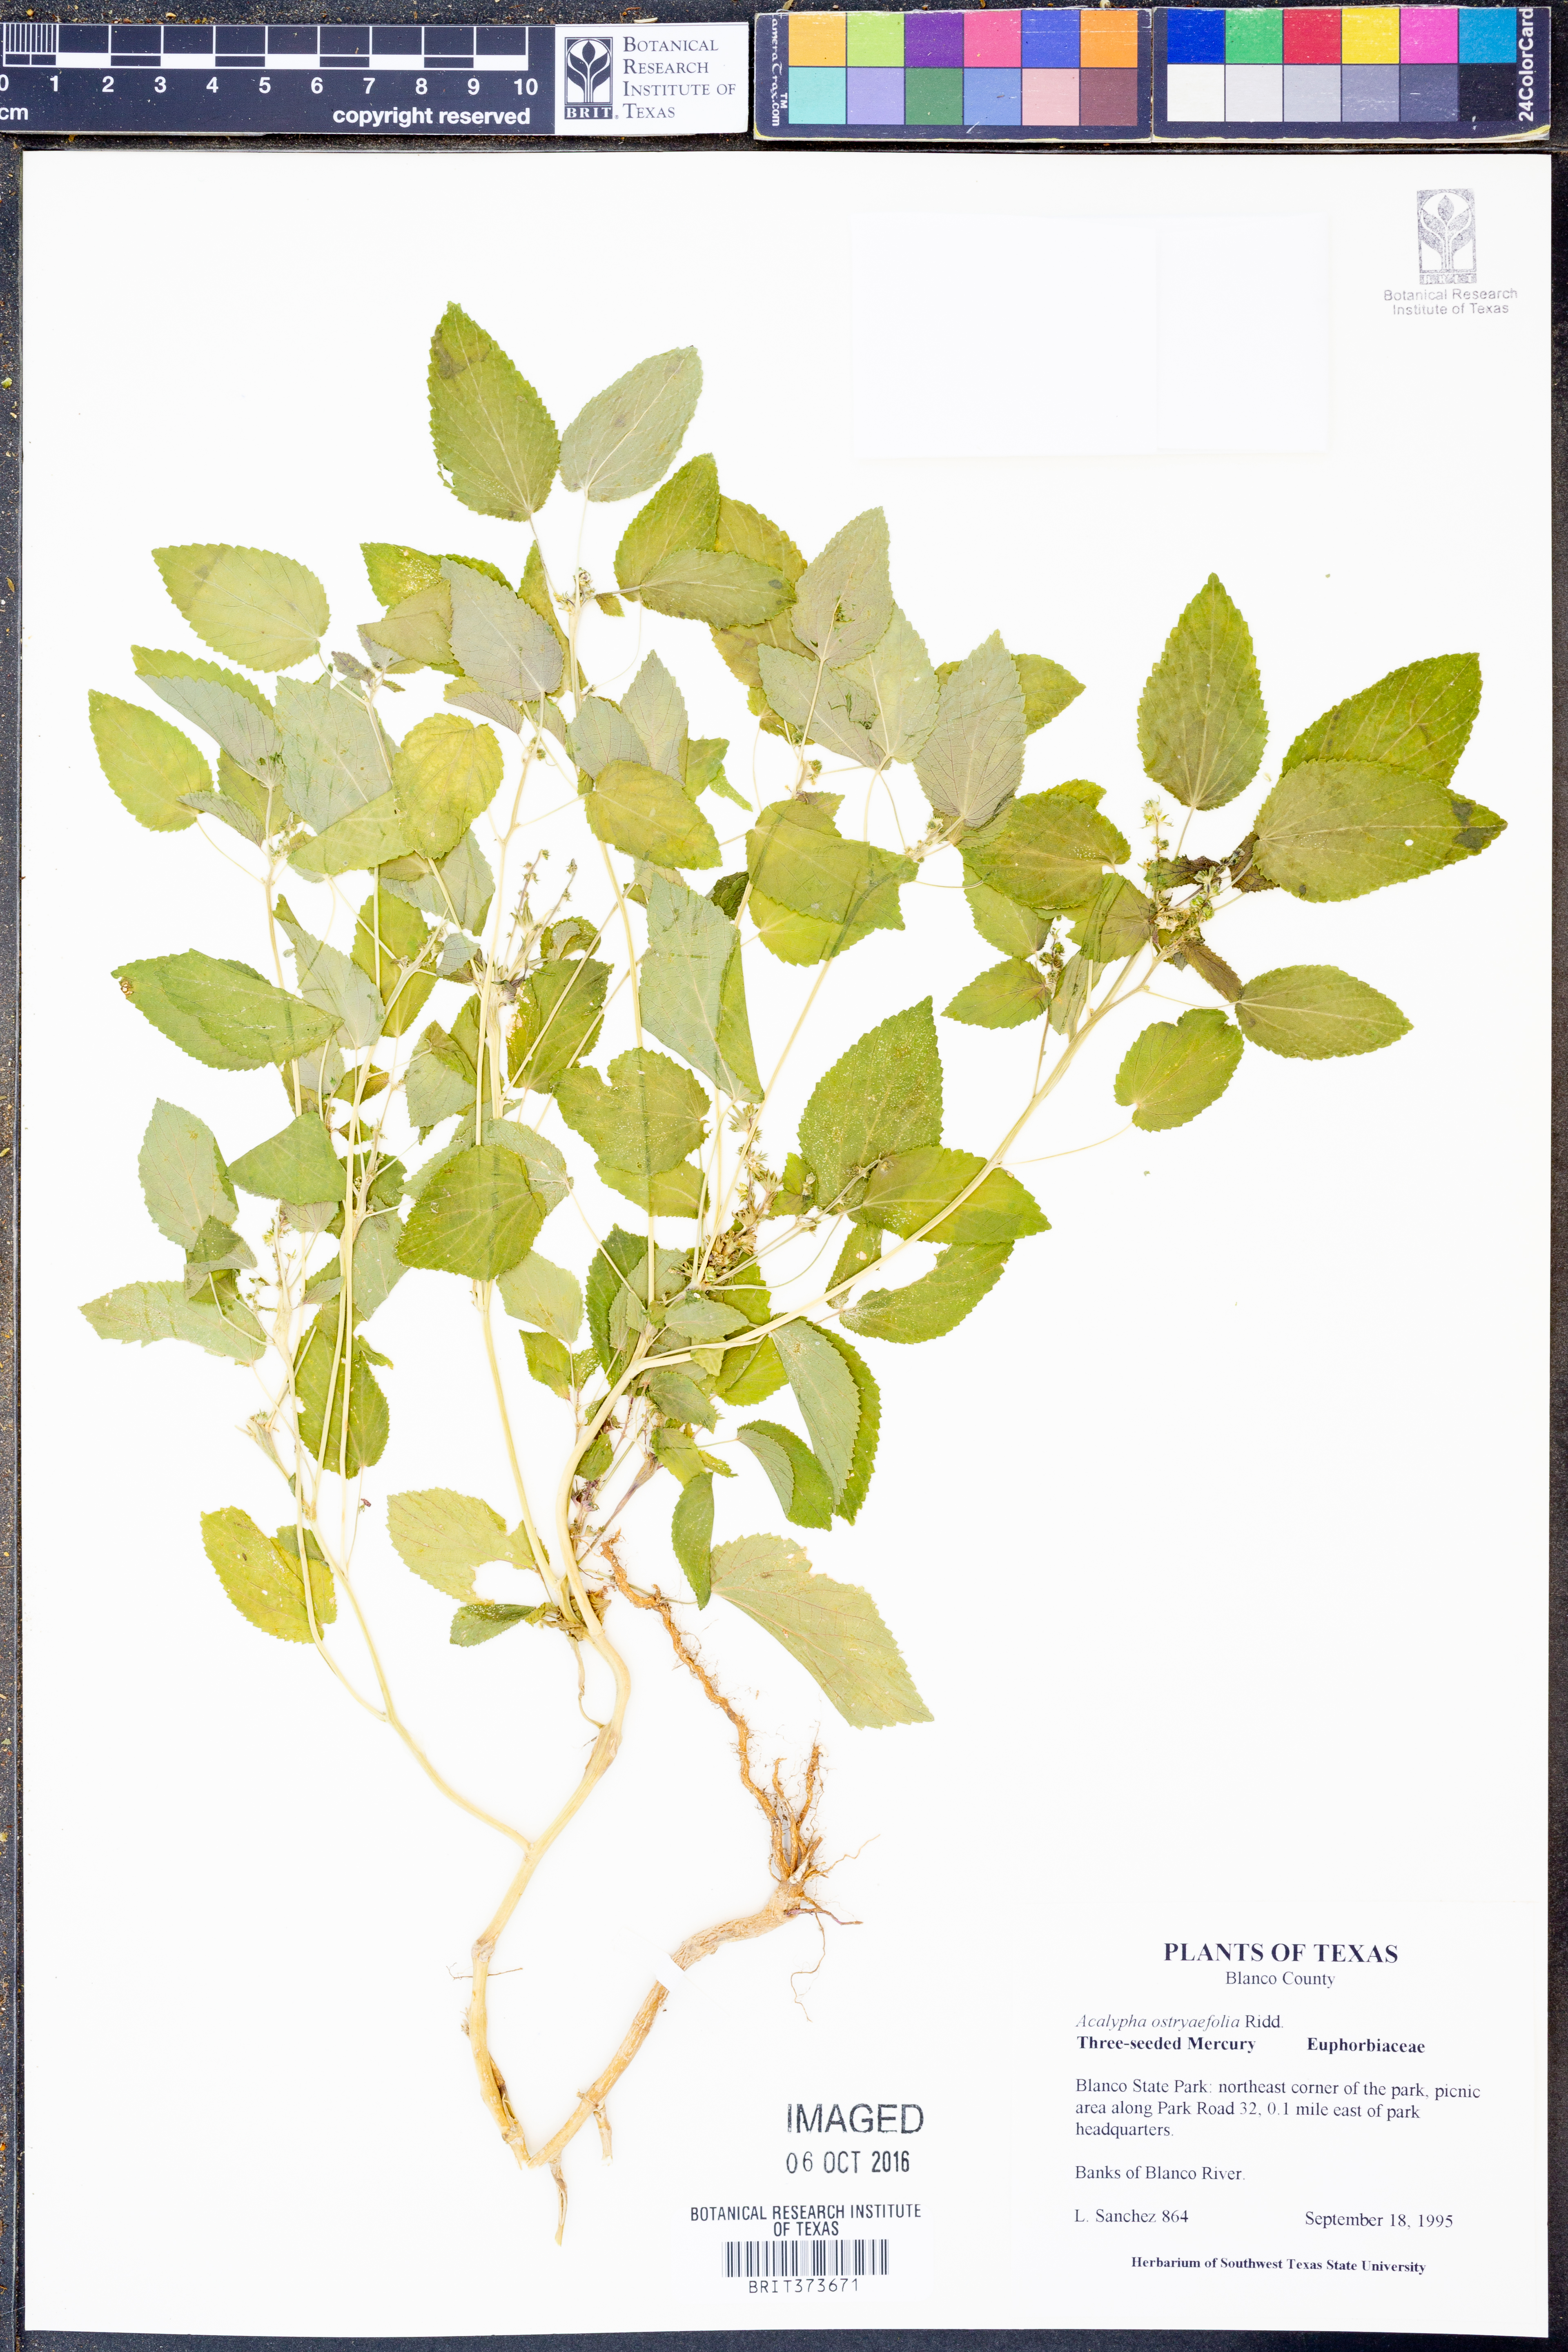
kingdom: Plantae
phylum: Tracheophyta
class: Magnoliopsida
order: Malpighiales
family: Euphorbiaceae
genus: Acalypha
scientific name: Acalypha ostryifolia
